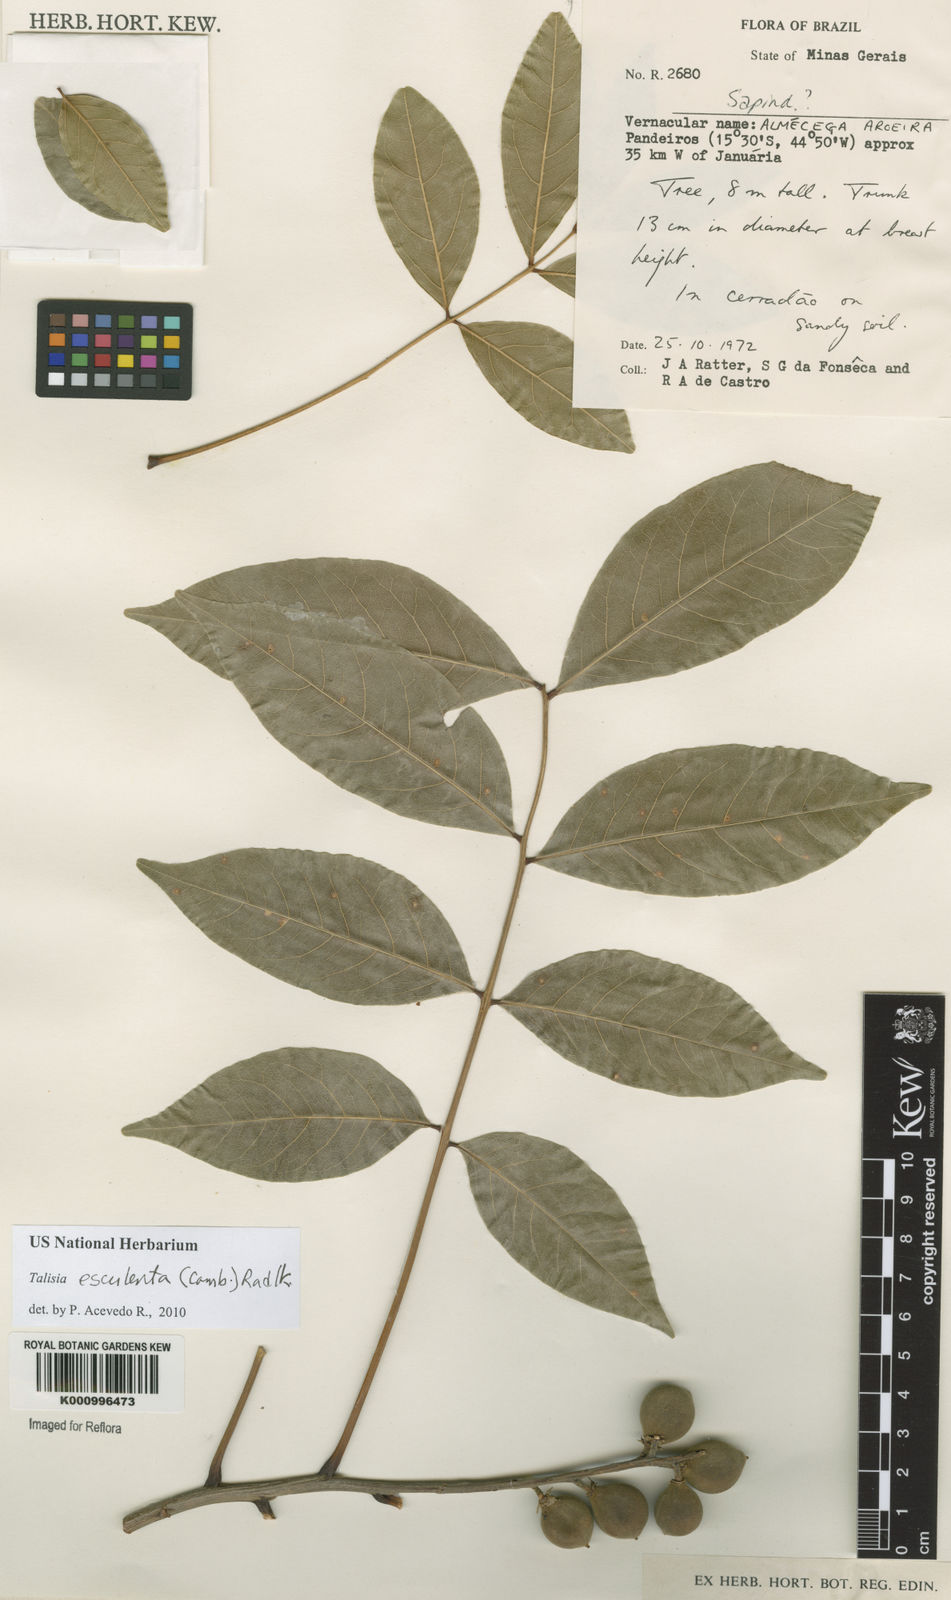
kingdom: Plantae
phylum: Tracheophyta
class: Magnoliopsida
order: Sapindales
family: Sapindaceae
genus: Talisia
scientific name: Talisia
